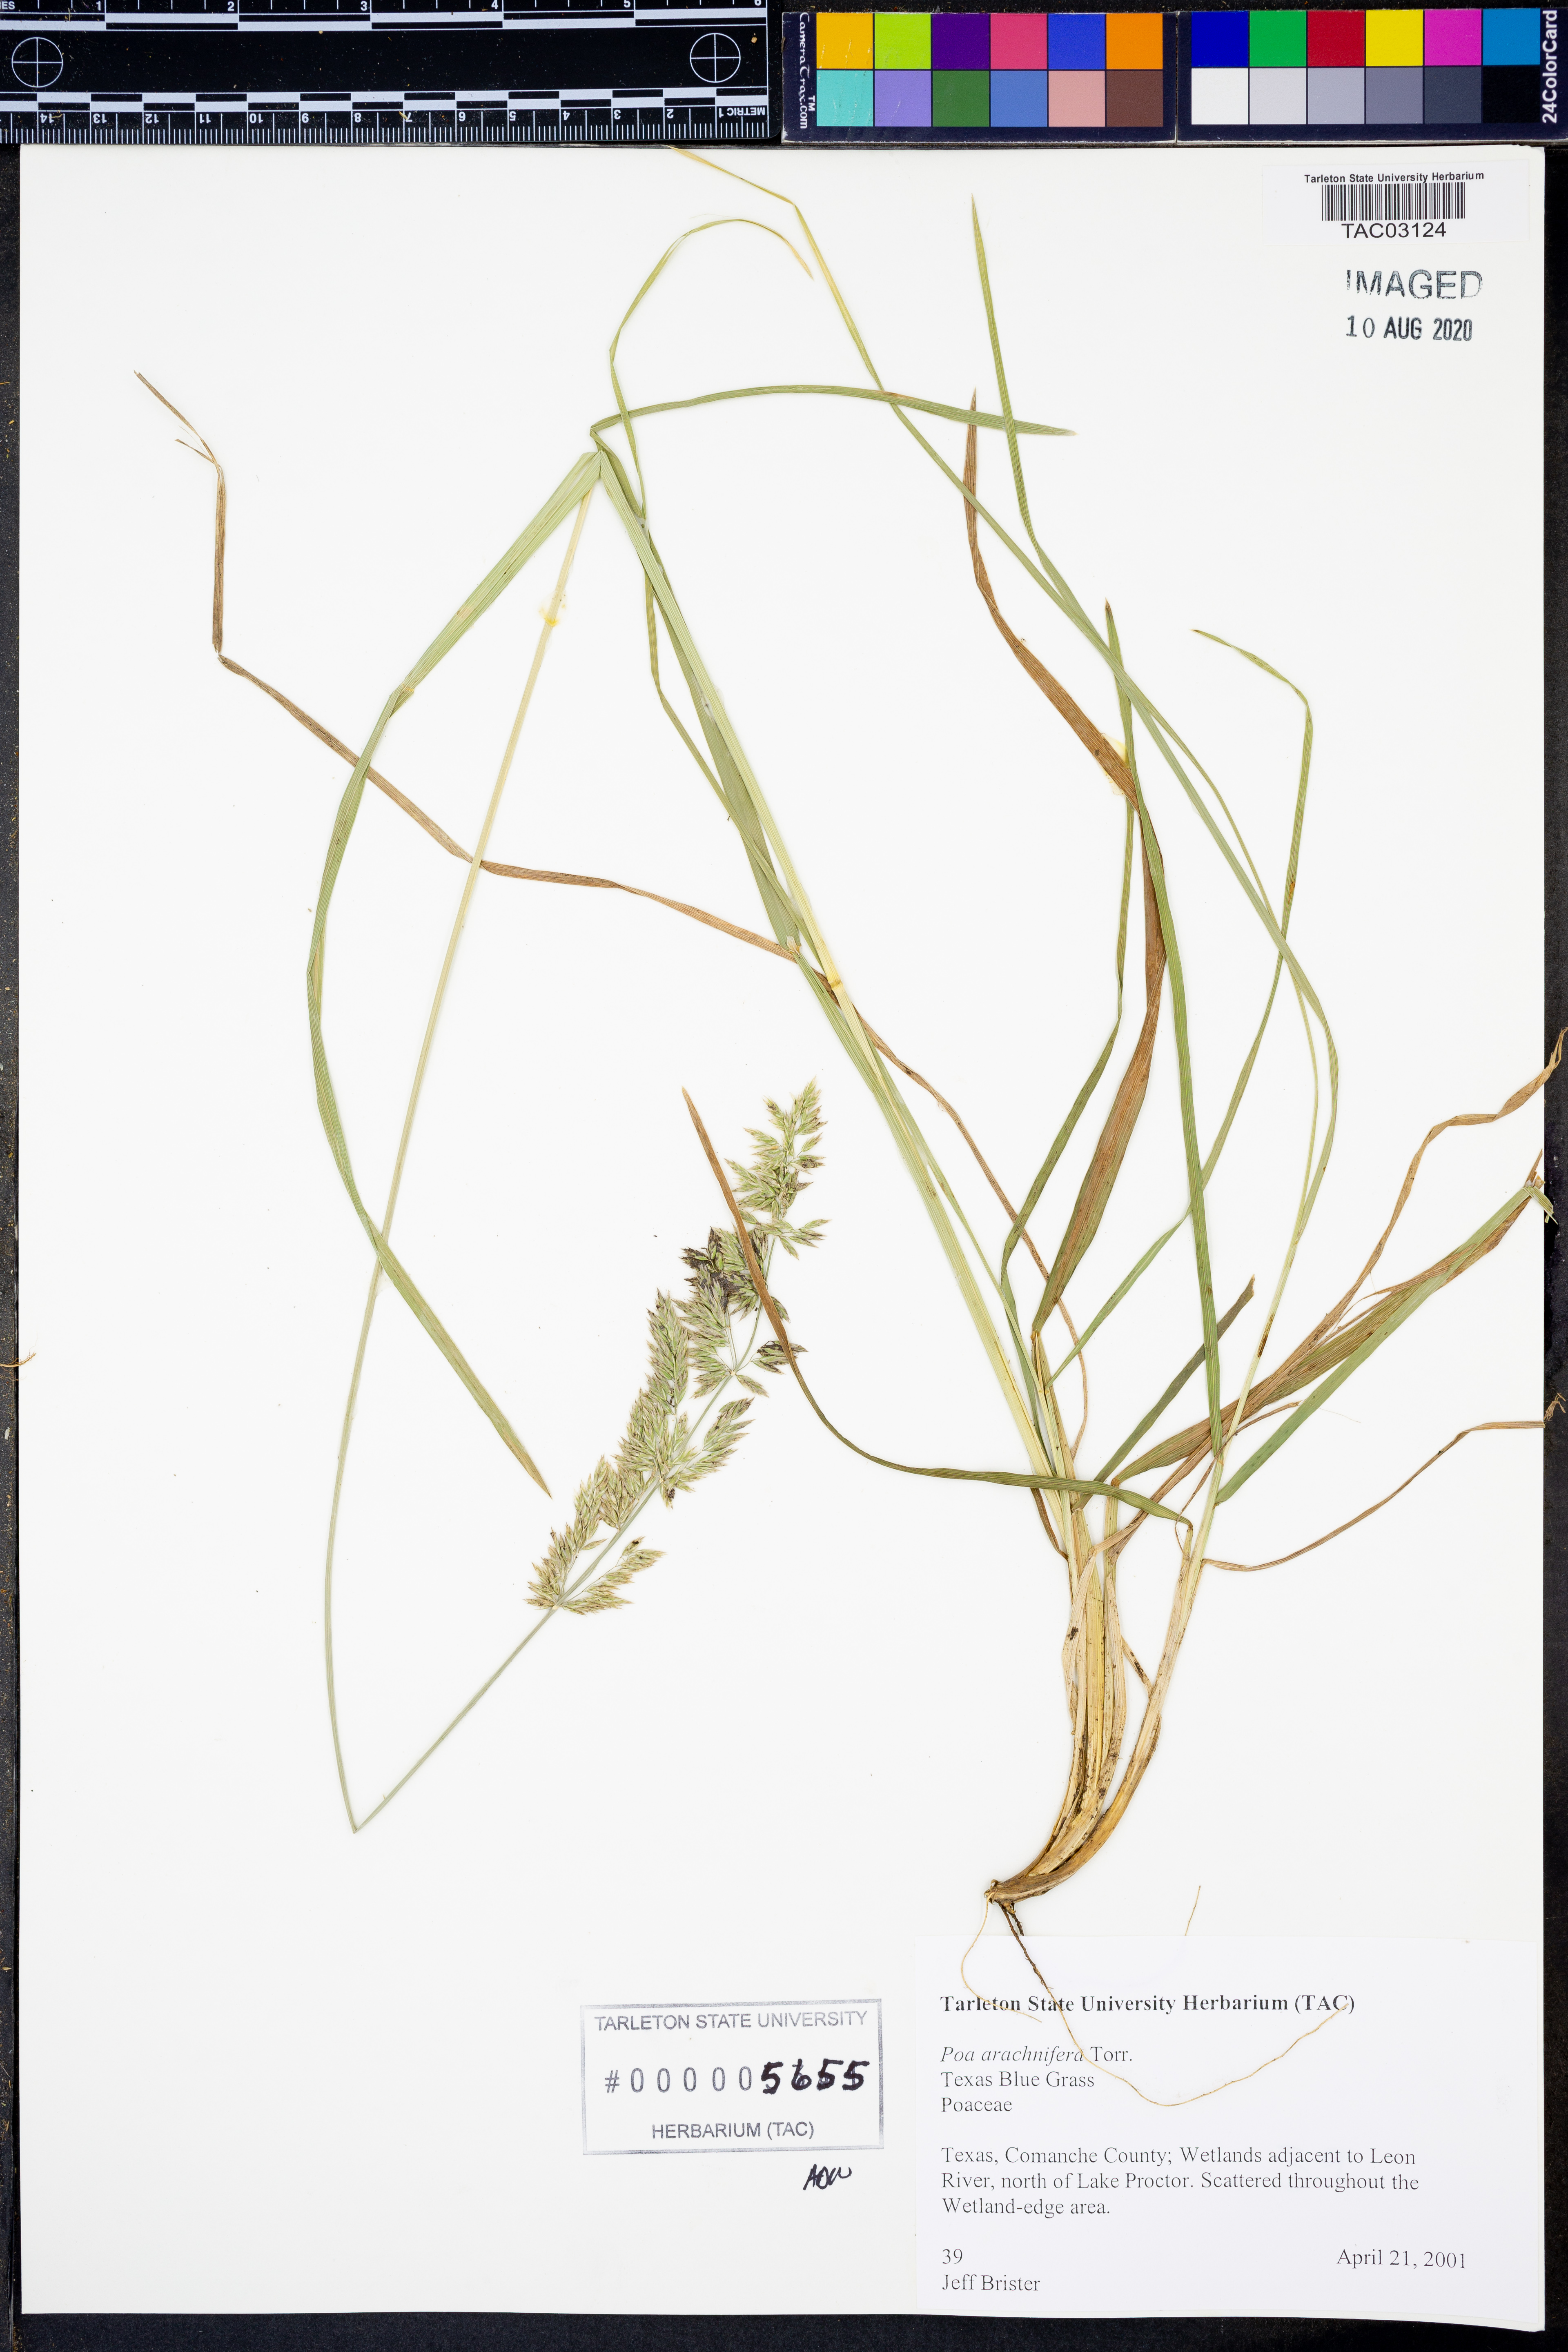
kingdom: Plantae
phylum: Tracheophyta
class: Liliopsida
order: Poales
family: Poaceae
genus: Poa
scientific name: Poa arachnifera
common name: Texas bluegrass
